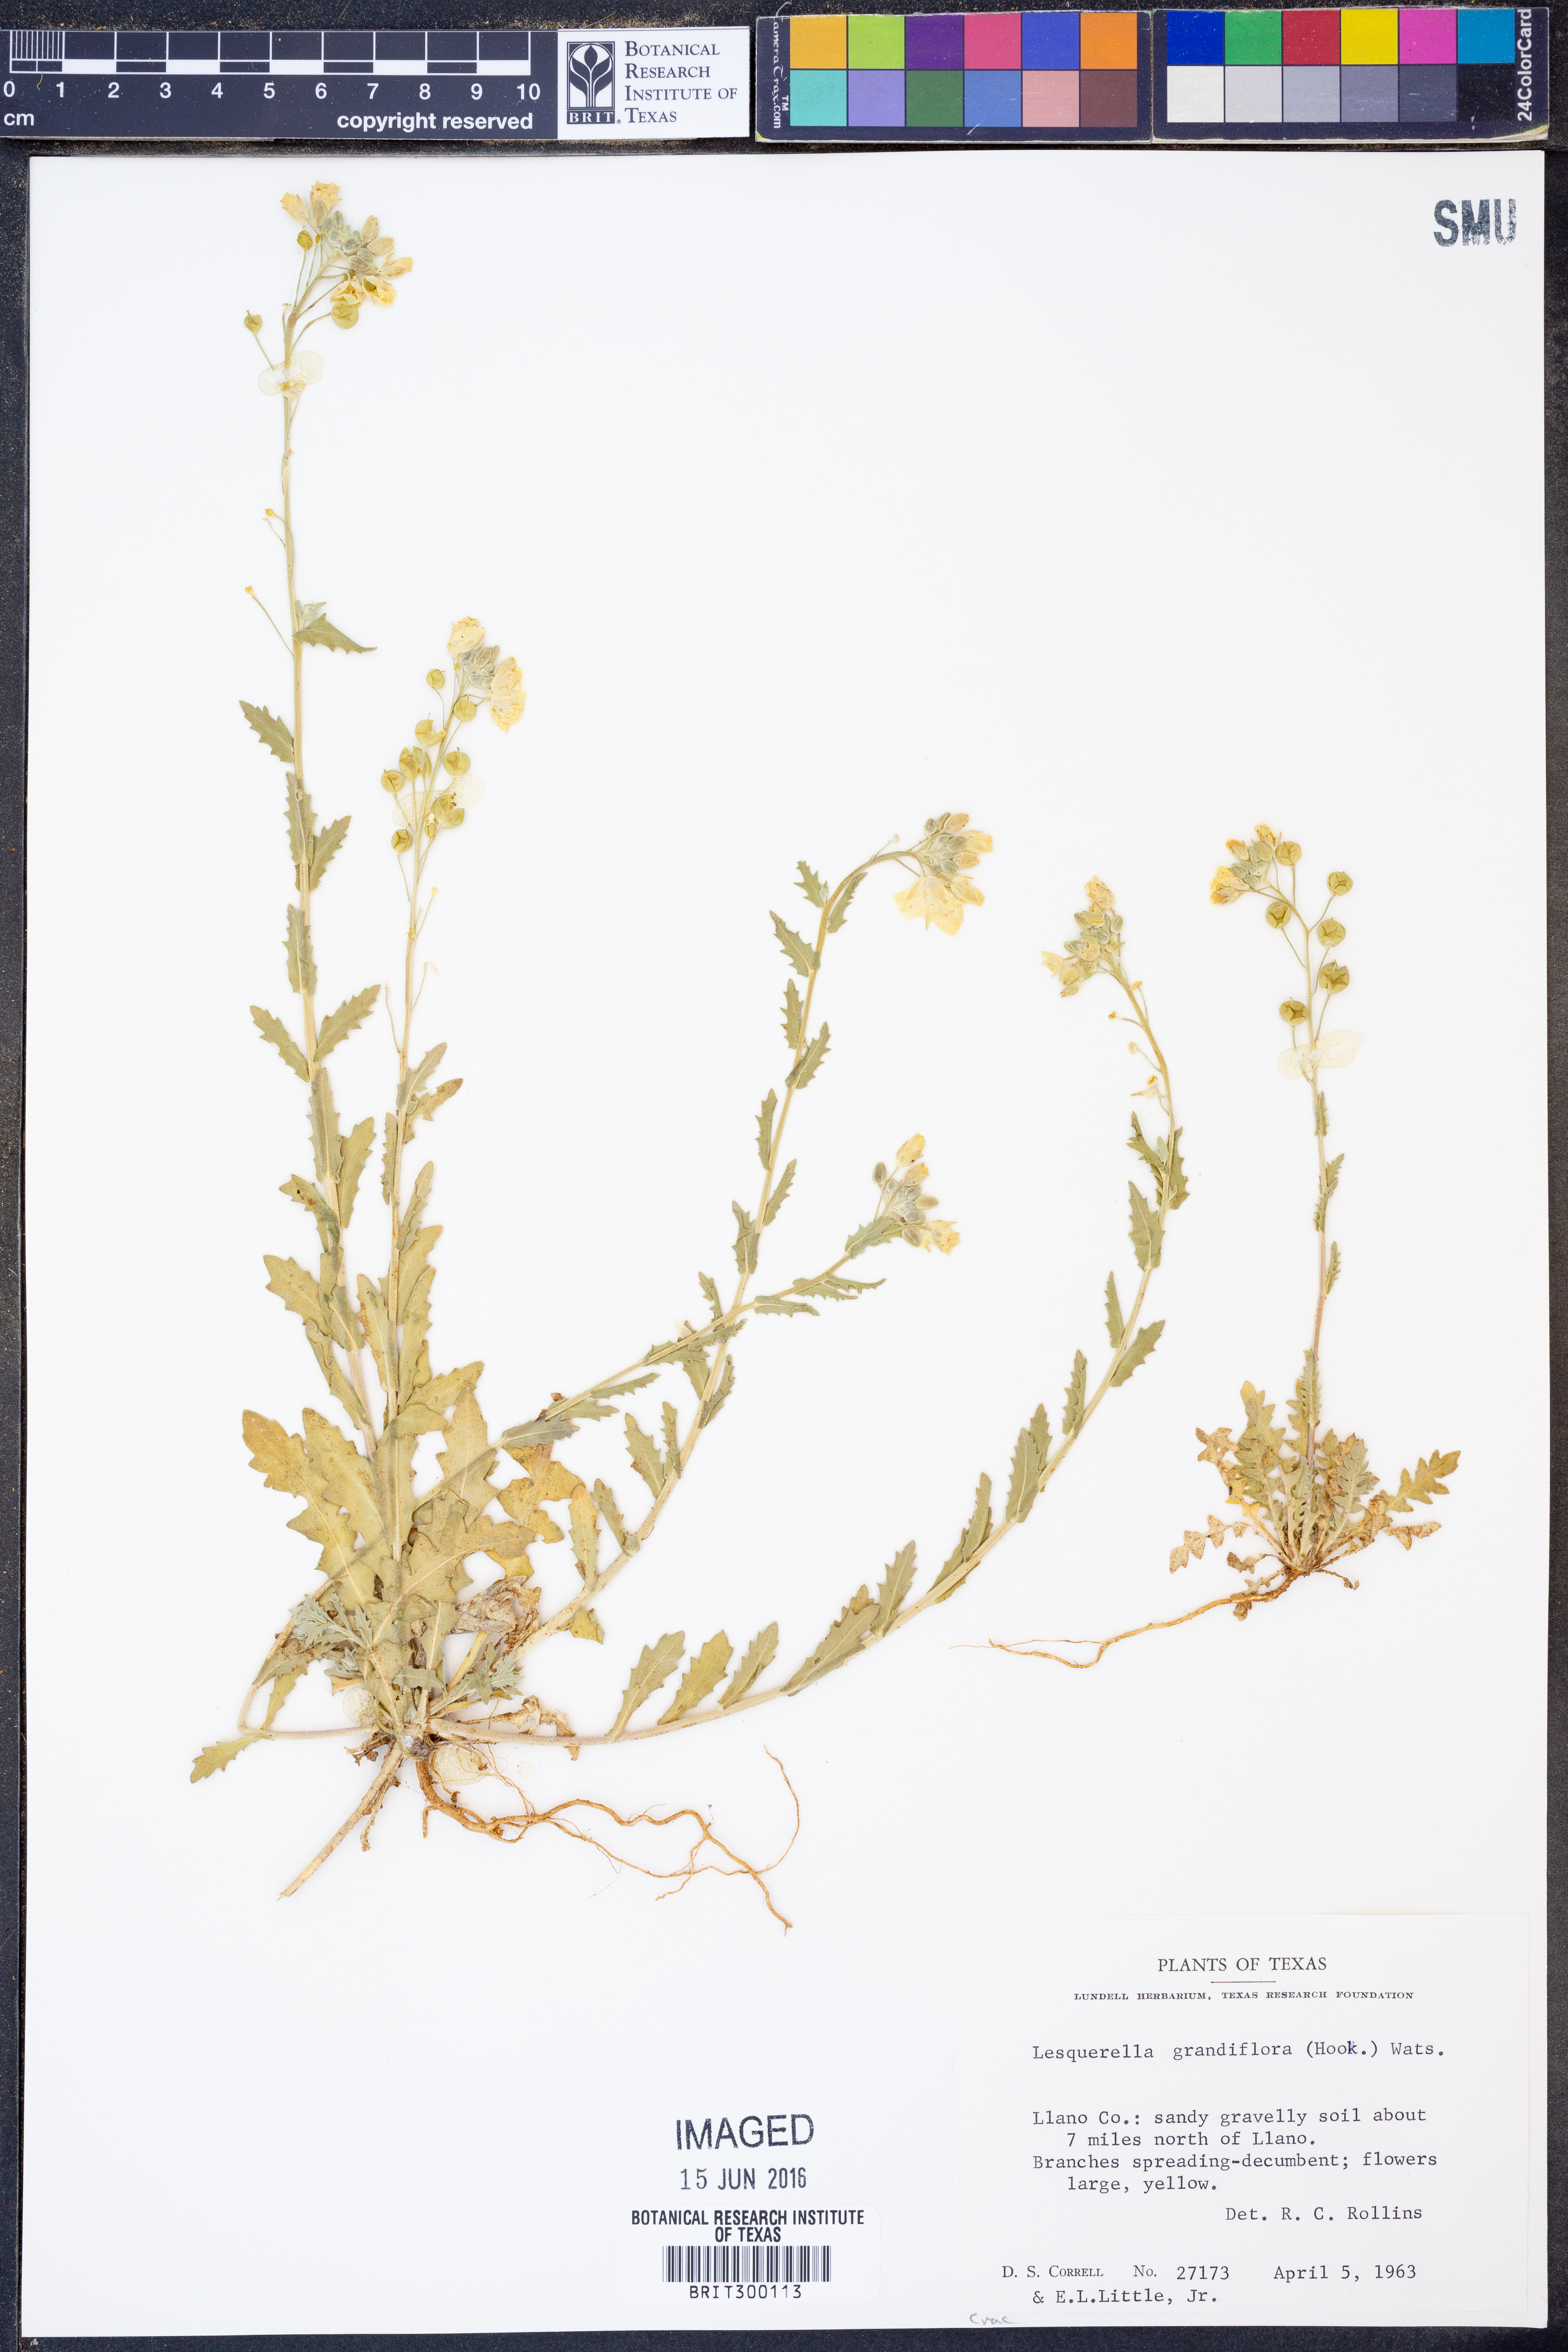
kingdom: Plantae
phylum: Tracheophyta
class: Magnoliopsida
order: Brassicales
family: Brassicaceae
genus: Paysonia
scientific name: Paysonia grandiflora
